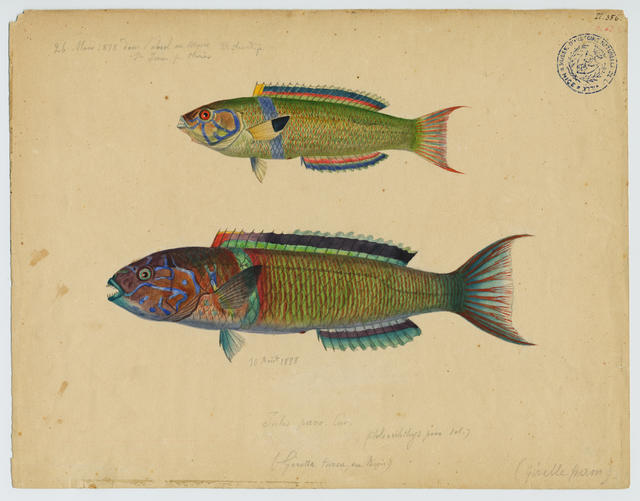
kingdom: Animalia
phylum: Chordata
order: Perciformes
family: Labridae
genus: Thalassoma
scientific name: Thalassoma pavo
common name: Ornate wrasse
